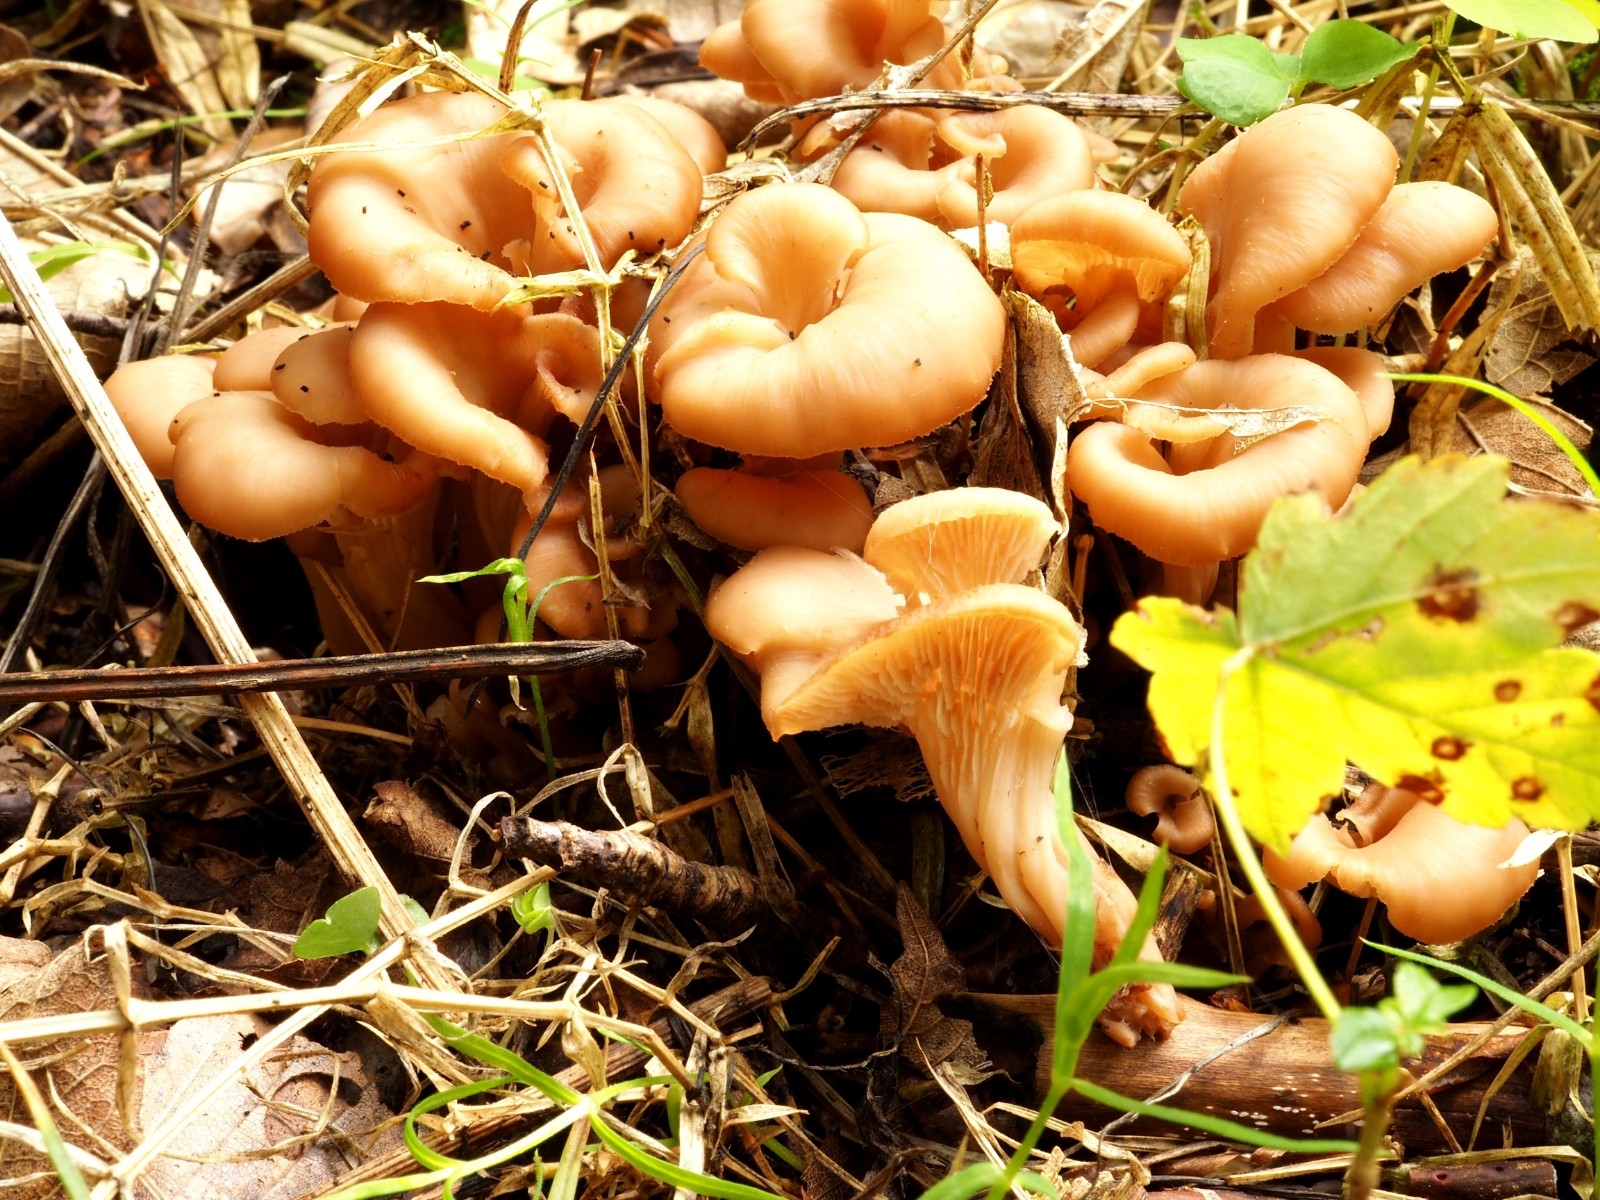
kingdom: Fungi
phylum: Basidiomycota
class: Agaricomycetes
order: Russulales
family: Auriscalpiaceae
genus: Lentinellus
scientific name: Lentinellus cochleatus
